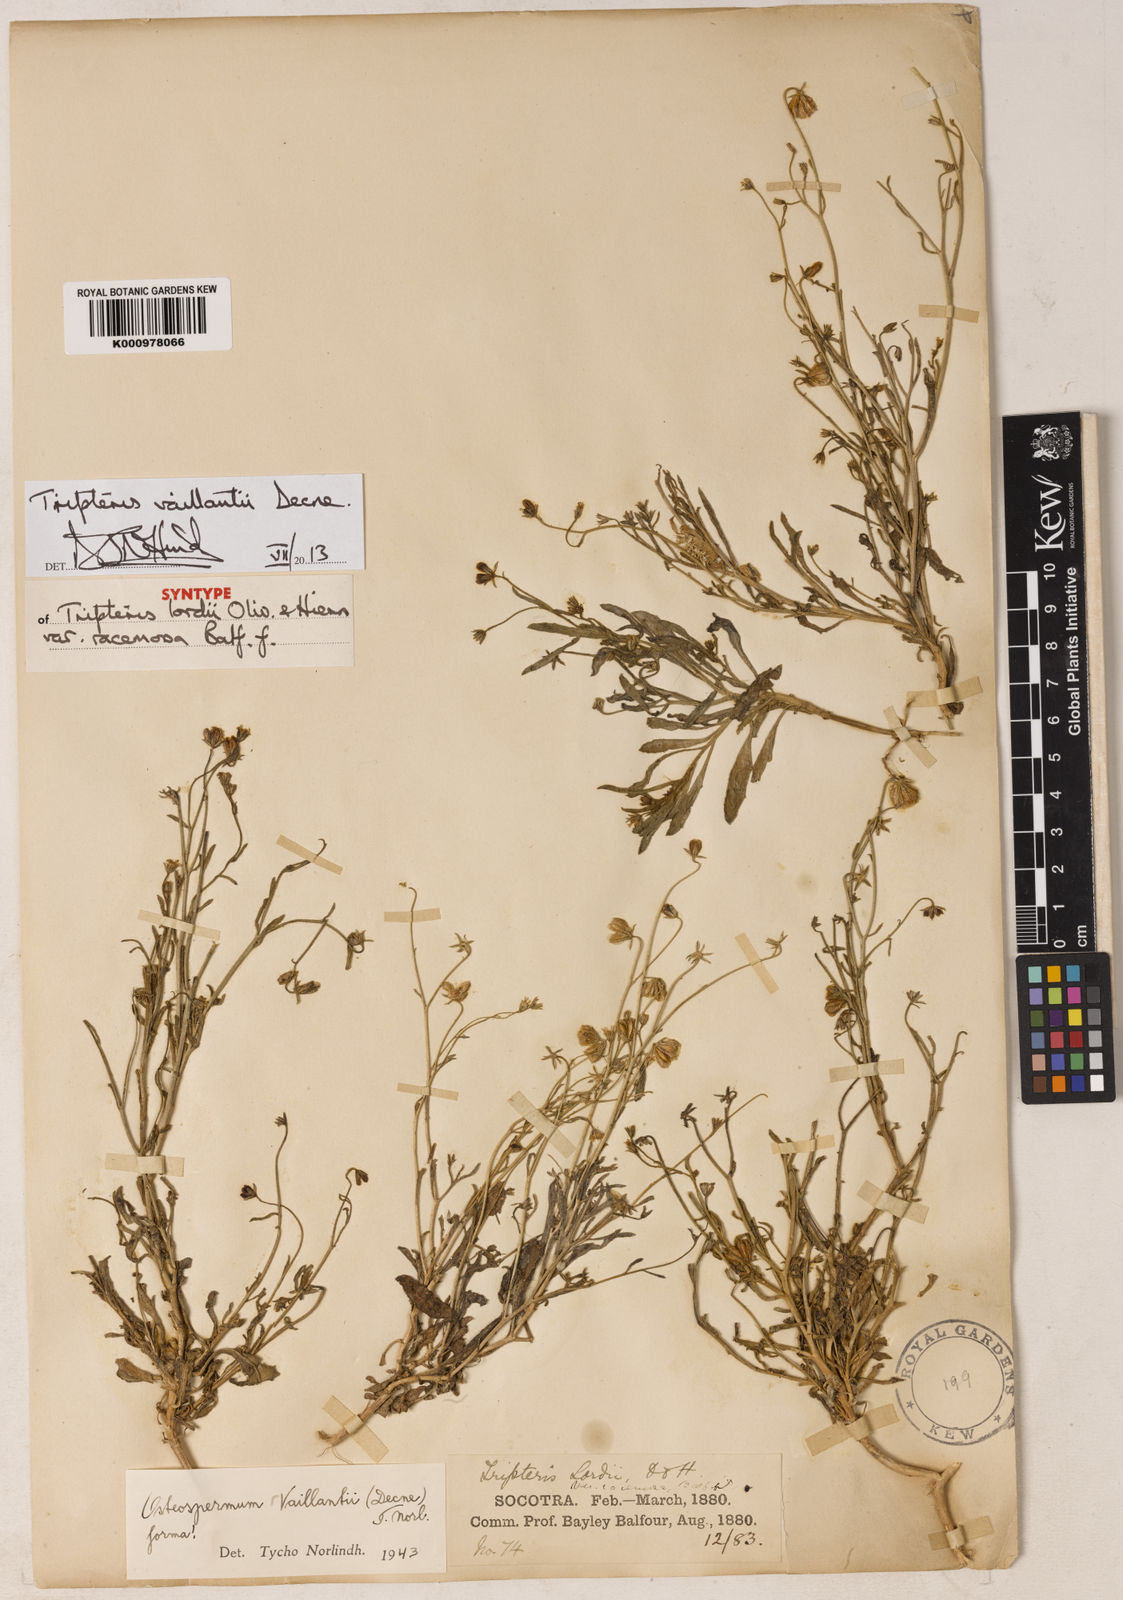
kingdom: Plantae
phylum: Tracheophyta
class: Magnoliopsida
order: Asterales
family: Asteraceae
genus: Osteospermum
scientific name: Osteospermum vaillantii
